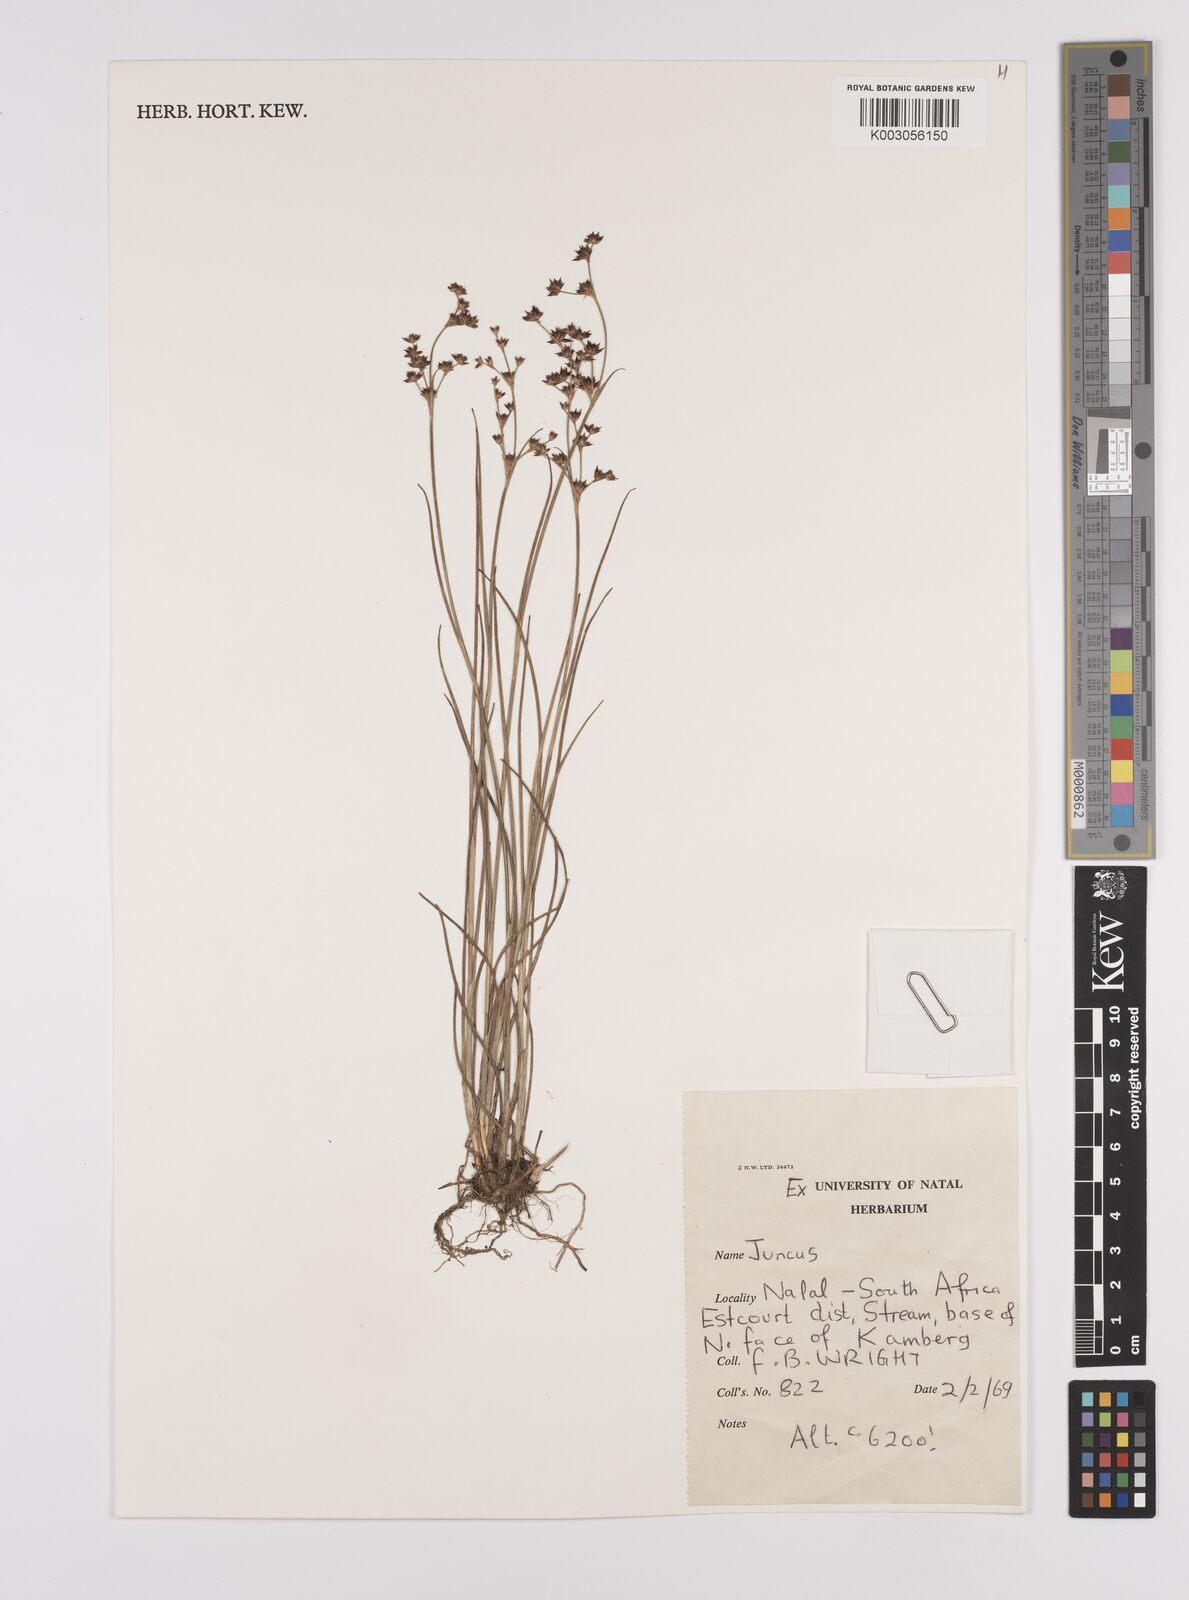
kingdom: Plantae
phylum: Tracheophyta
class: Liliopsida
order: Poales
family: Juncaceae
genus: Juncus
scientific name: Juncus
